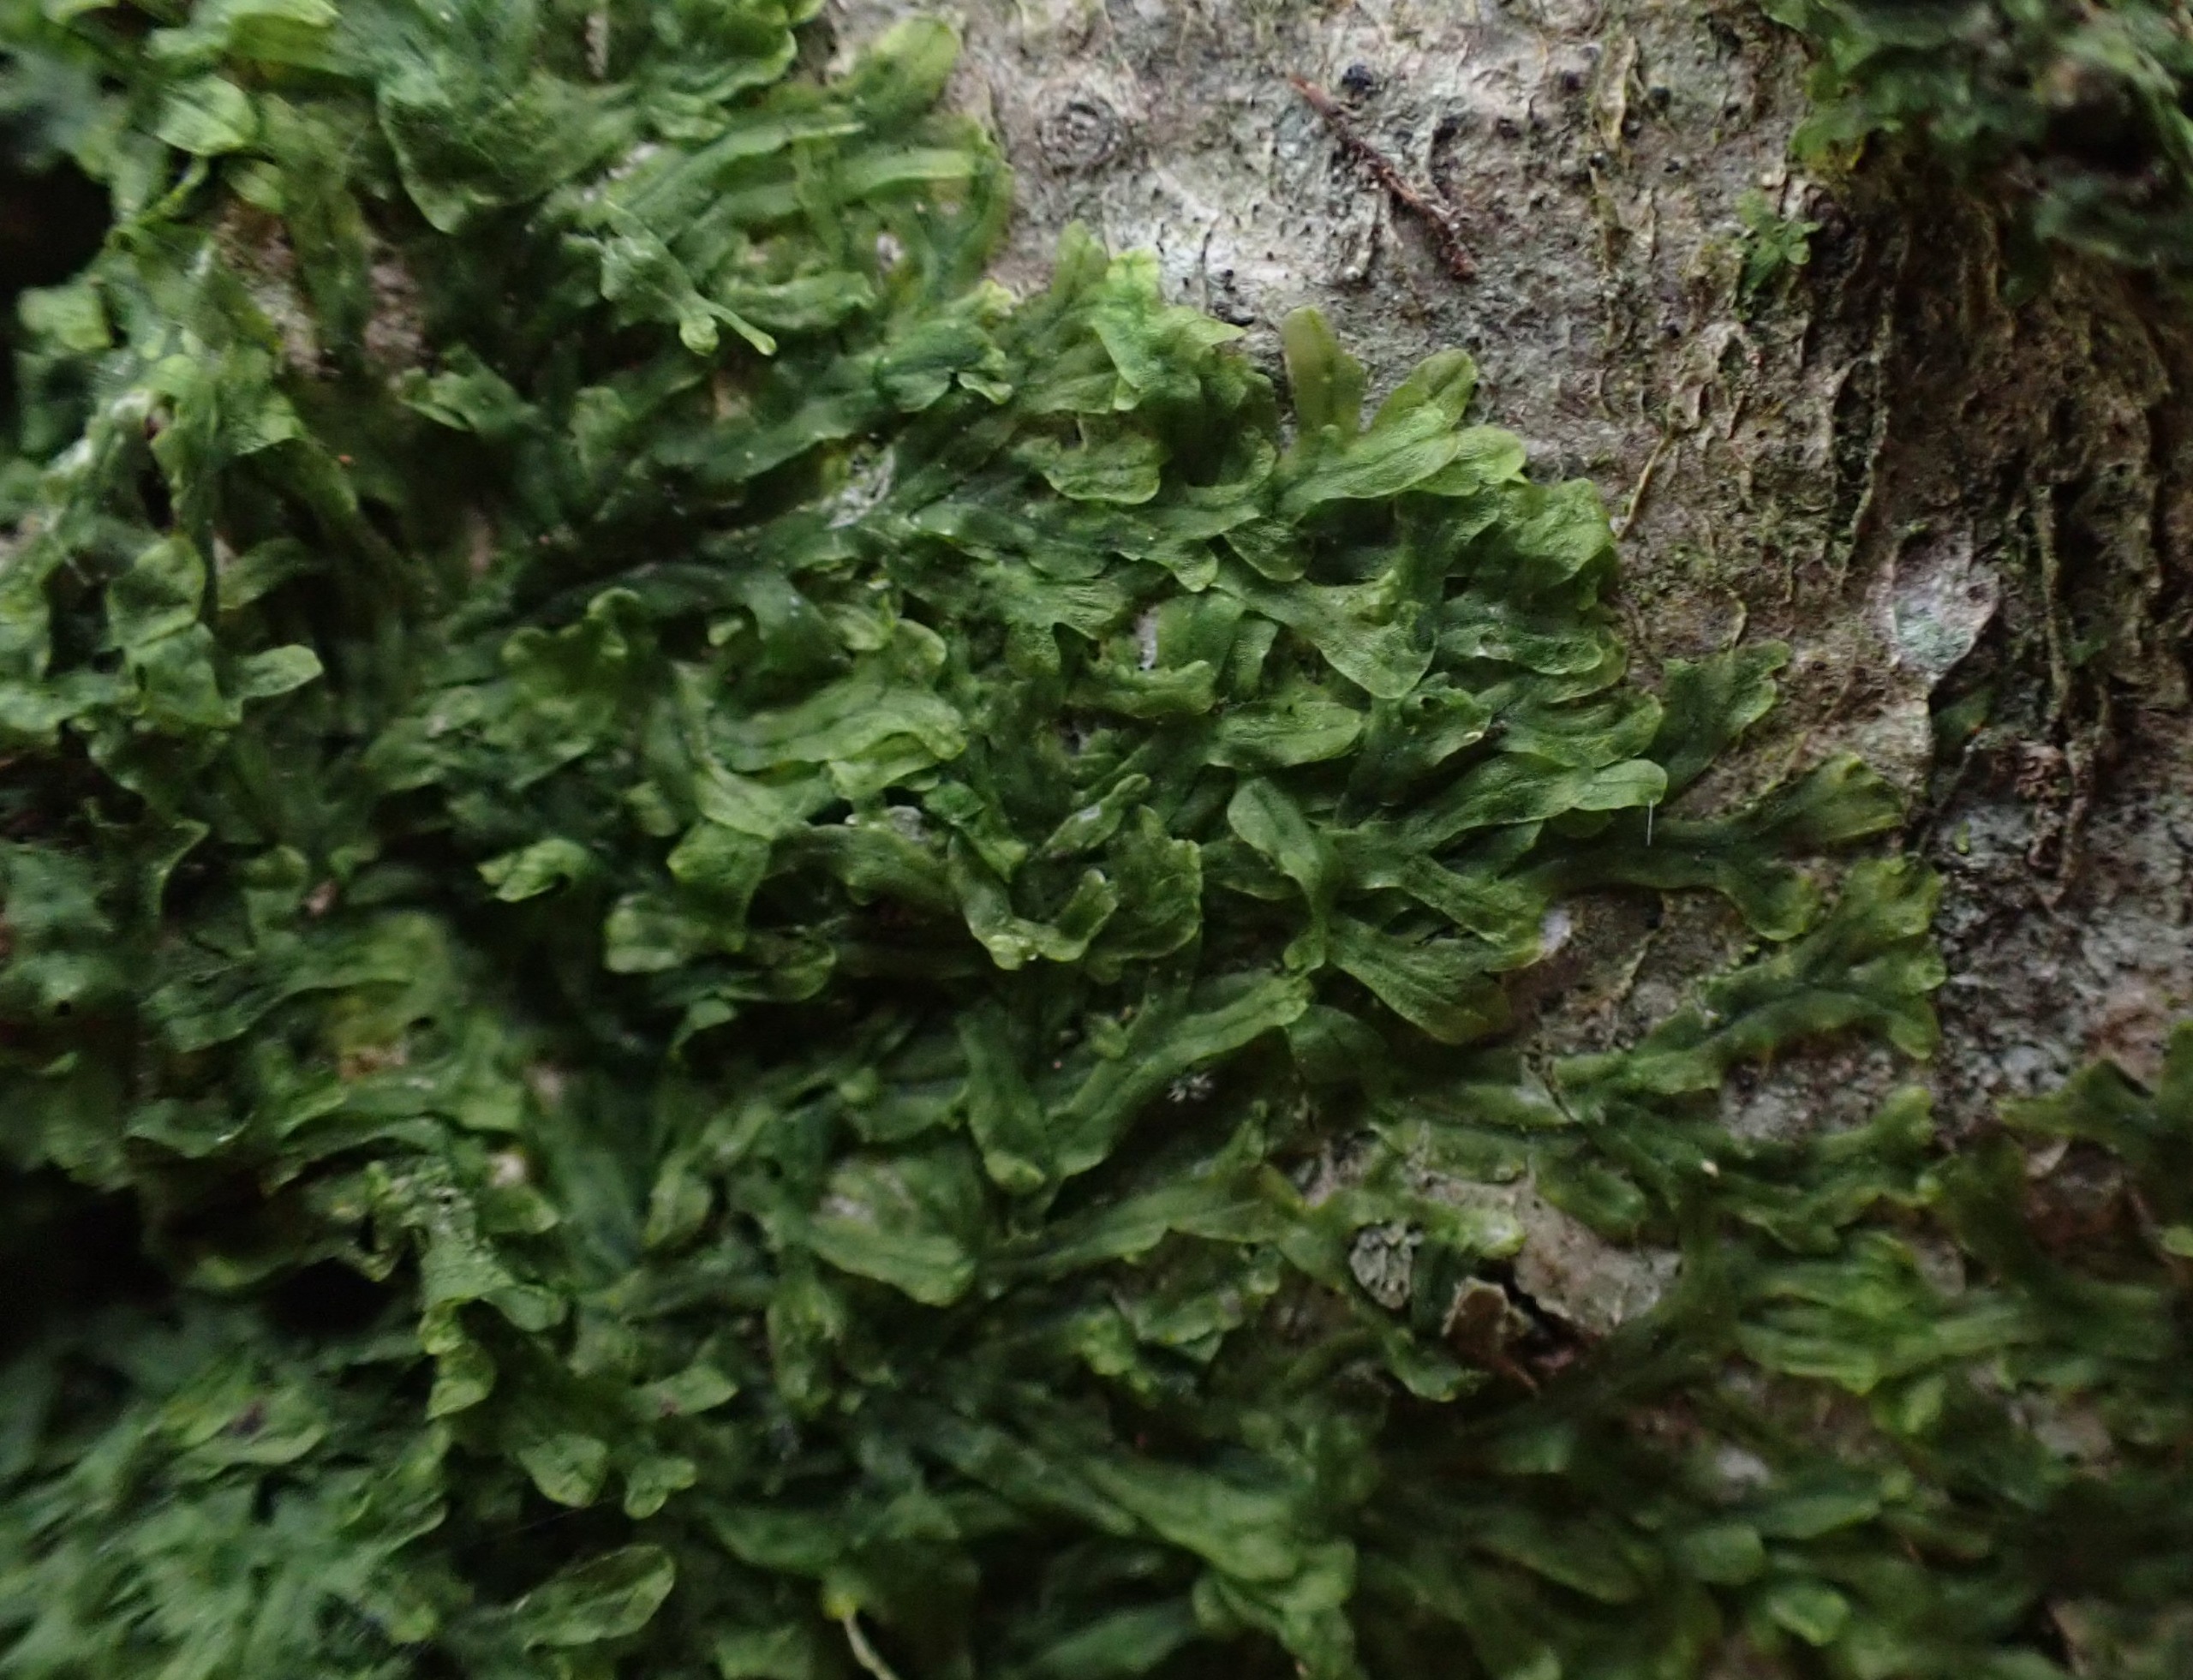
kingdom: Plantae
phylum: Marchantiophyta
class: Jungermanniopsida
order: Metzgeriales
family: Metzgeriaceae
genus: Metzgeria
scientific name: Metzgeria furcata
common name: Almindelig gaffelløv
